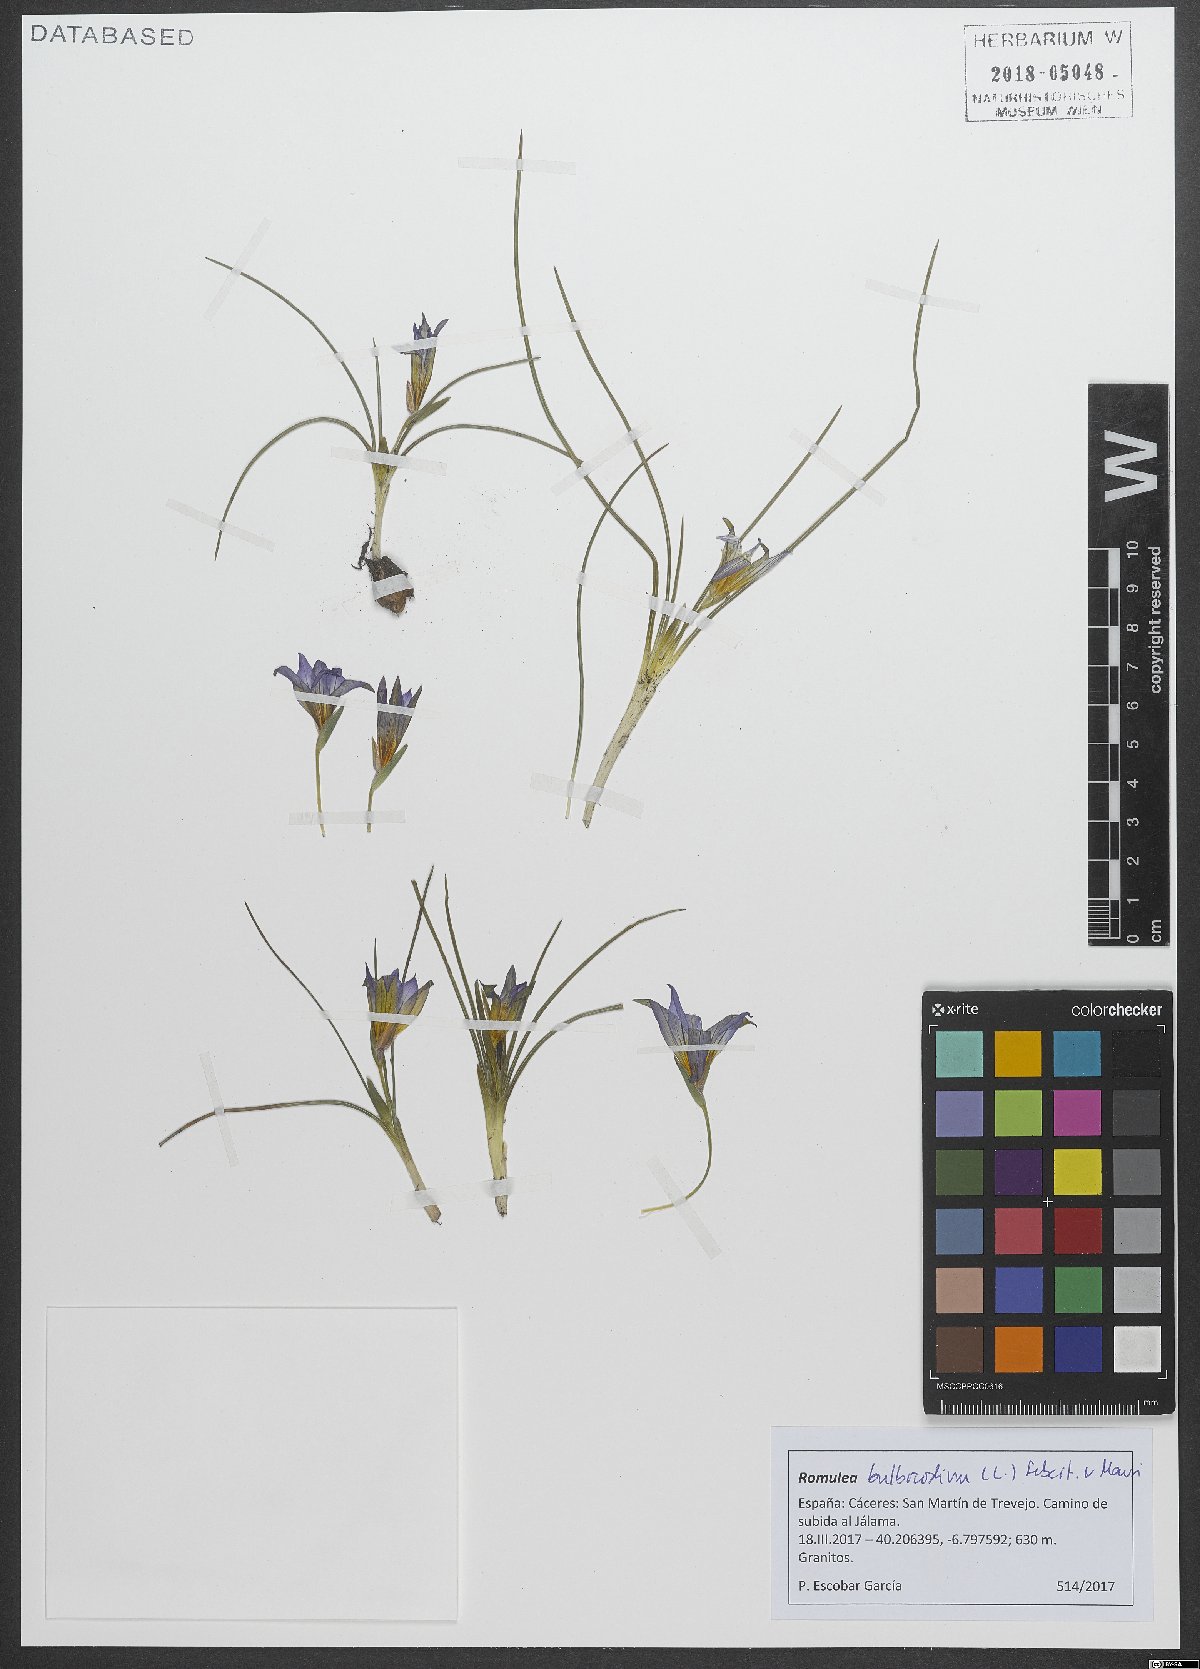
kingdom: Plantae
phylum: Tracheophyta
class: Liliopsida
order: Asparagales
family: Iridaceae
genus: Romulea
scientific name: Romulea bulbocodium
